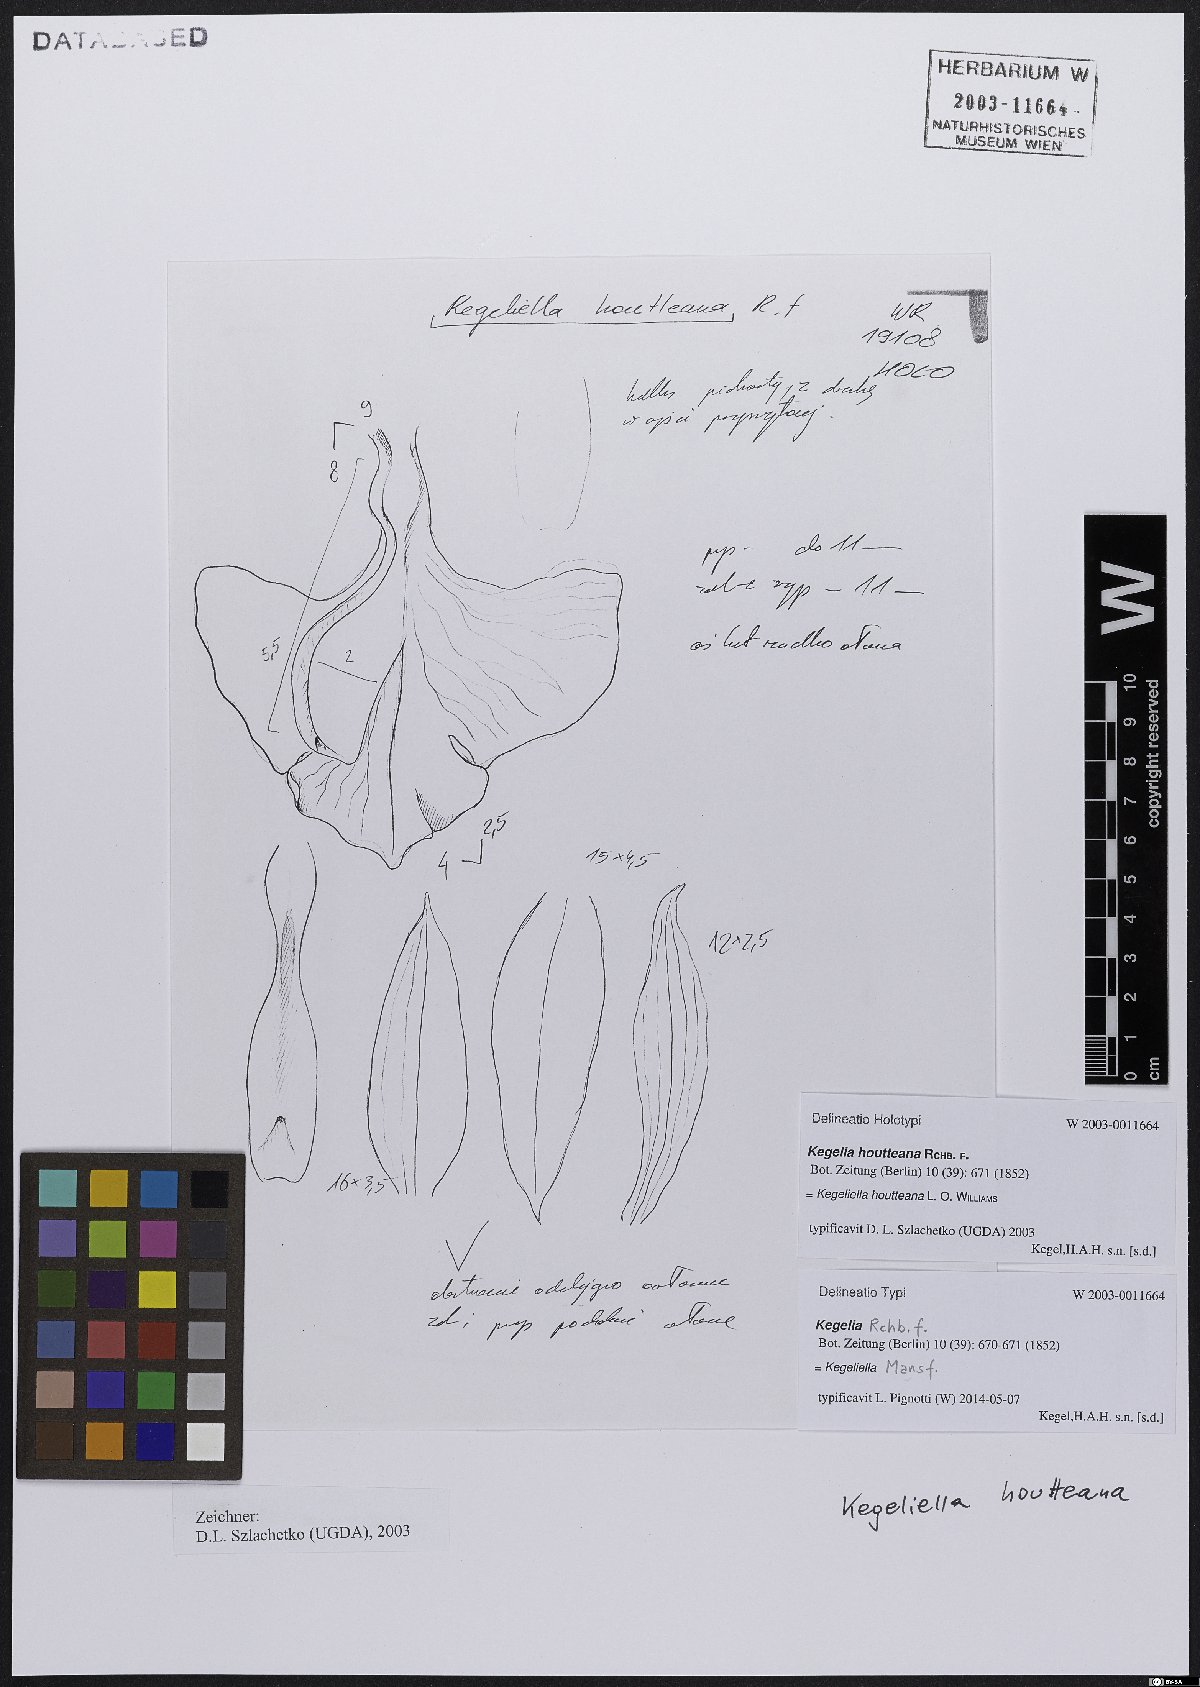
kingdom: Plantae
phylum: Tracheophyta
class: Liliopsida
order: Asparagales
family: Orchidaceae
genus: Kegeliella
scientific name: Kegeliella houtteana
